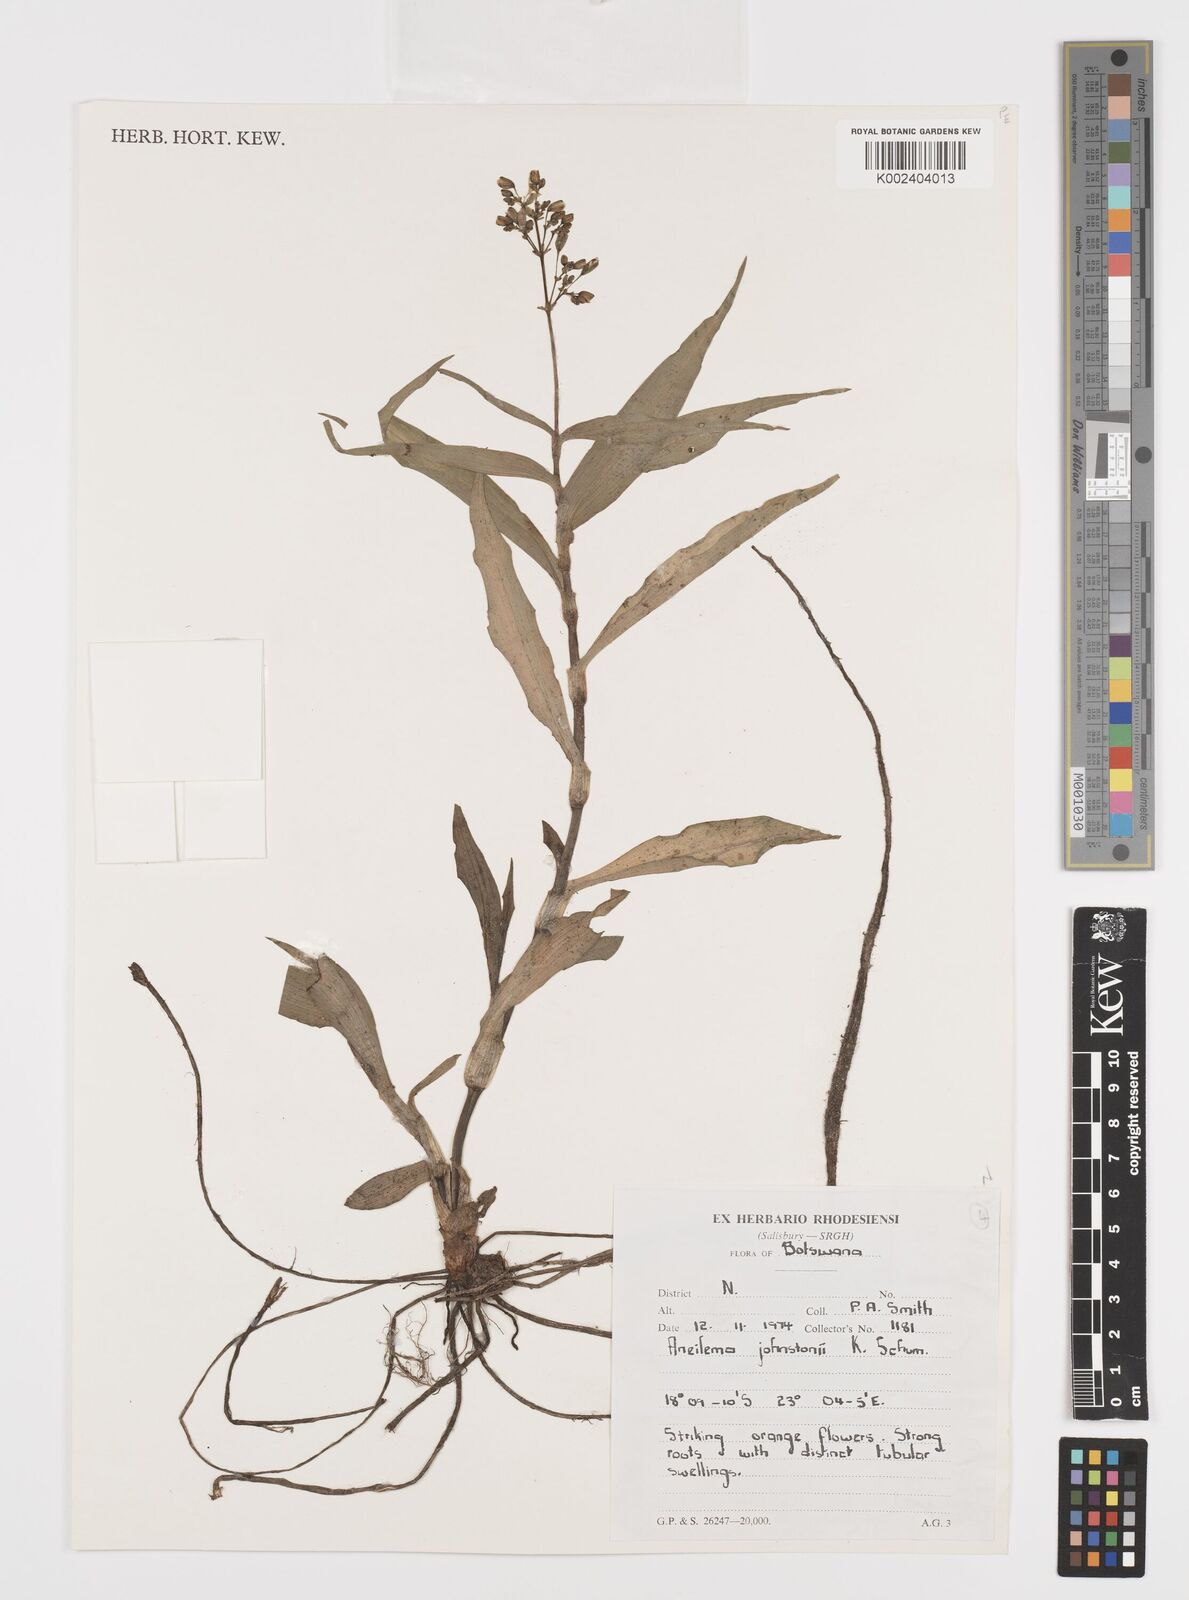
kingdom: Plantae
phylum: Tracheophyta
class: Liliopsida
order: Commelinales
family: Commelinaceae
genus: Aneilema
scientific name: Aneilema johnstonii
